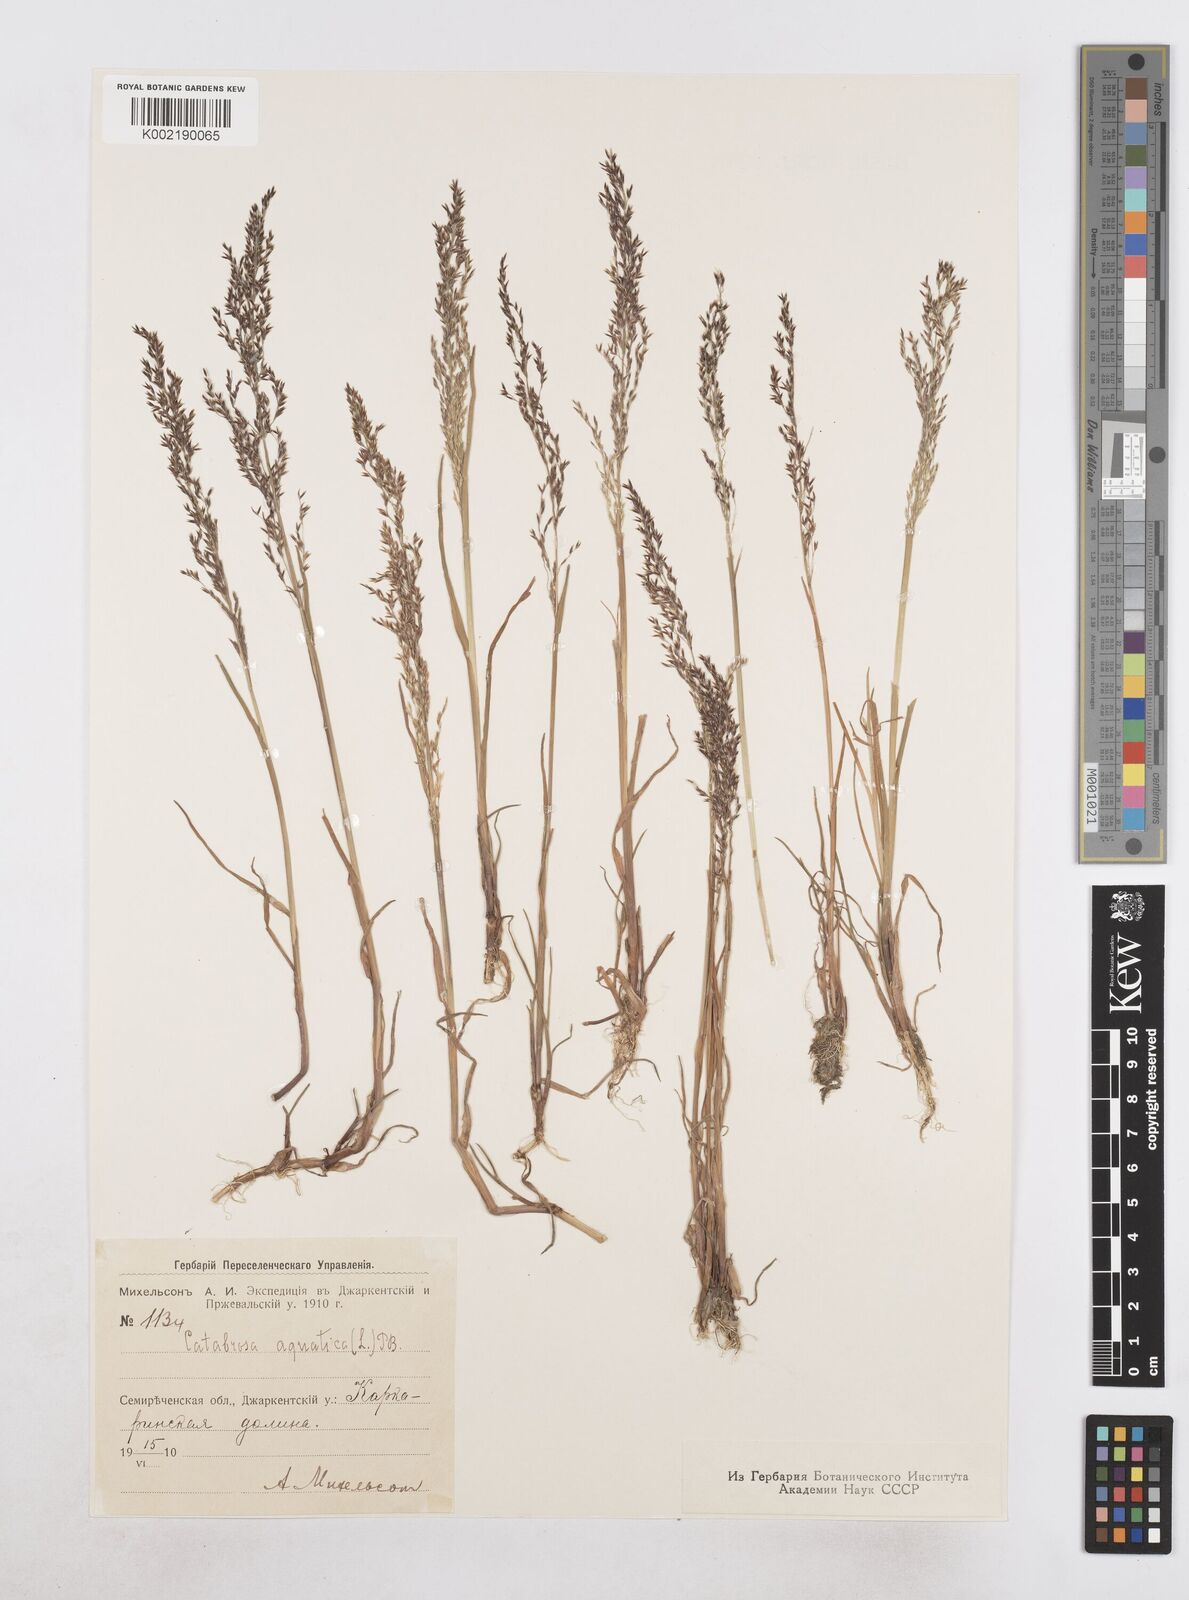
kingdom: Plantae
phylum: Tracheophyta
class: Liliopsida
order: Poales
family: Poaceae
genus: Catabrosa
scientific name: Catabrosa aquatica
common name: Whorl-grass
